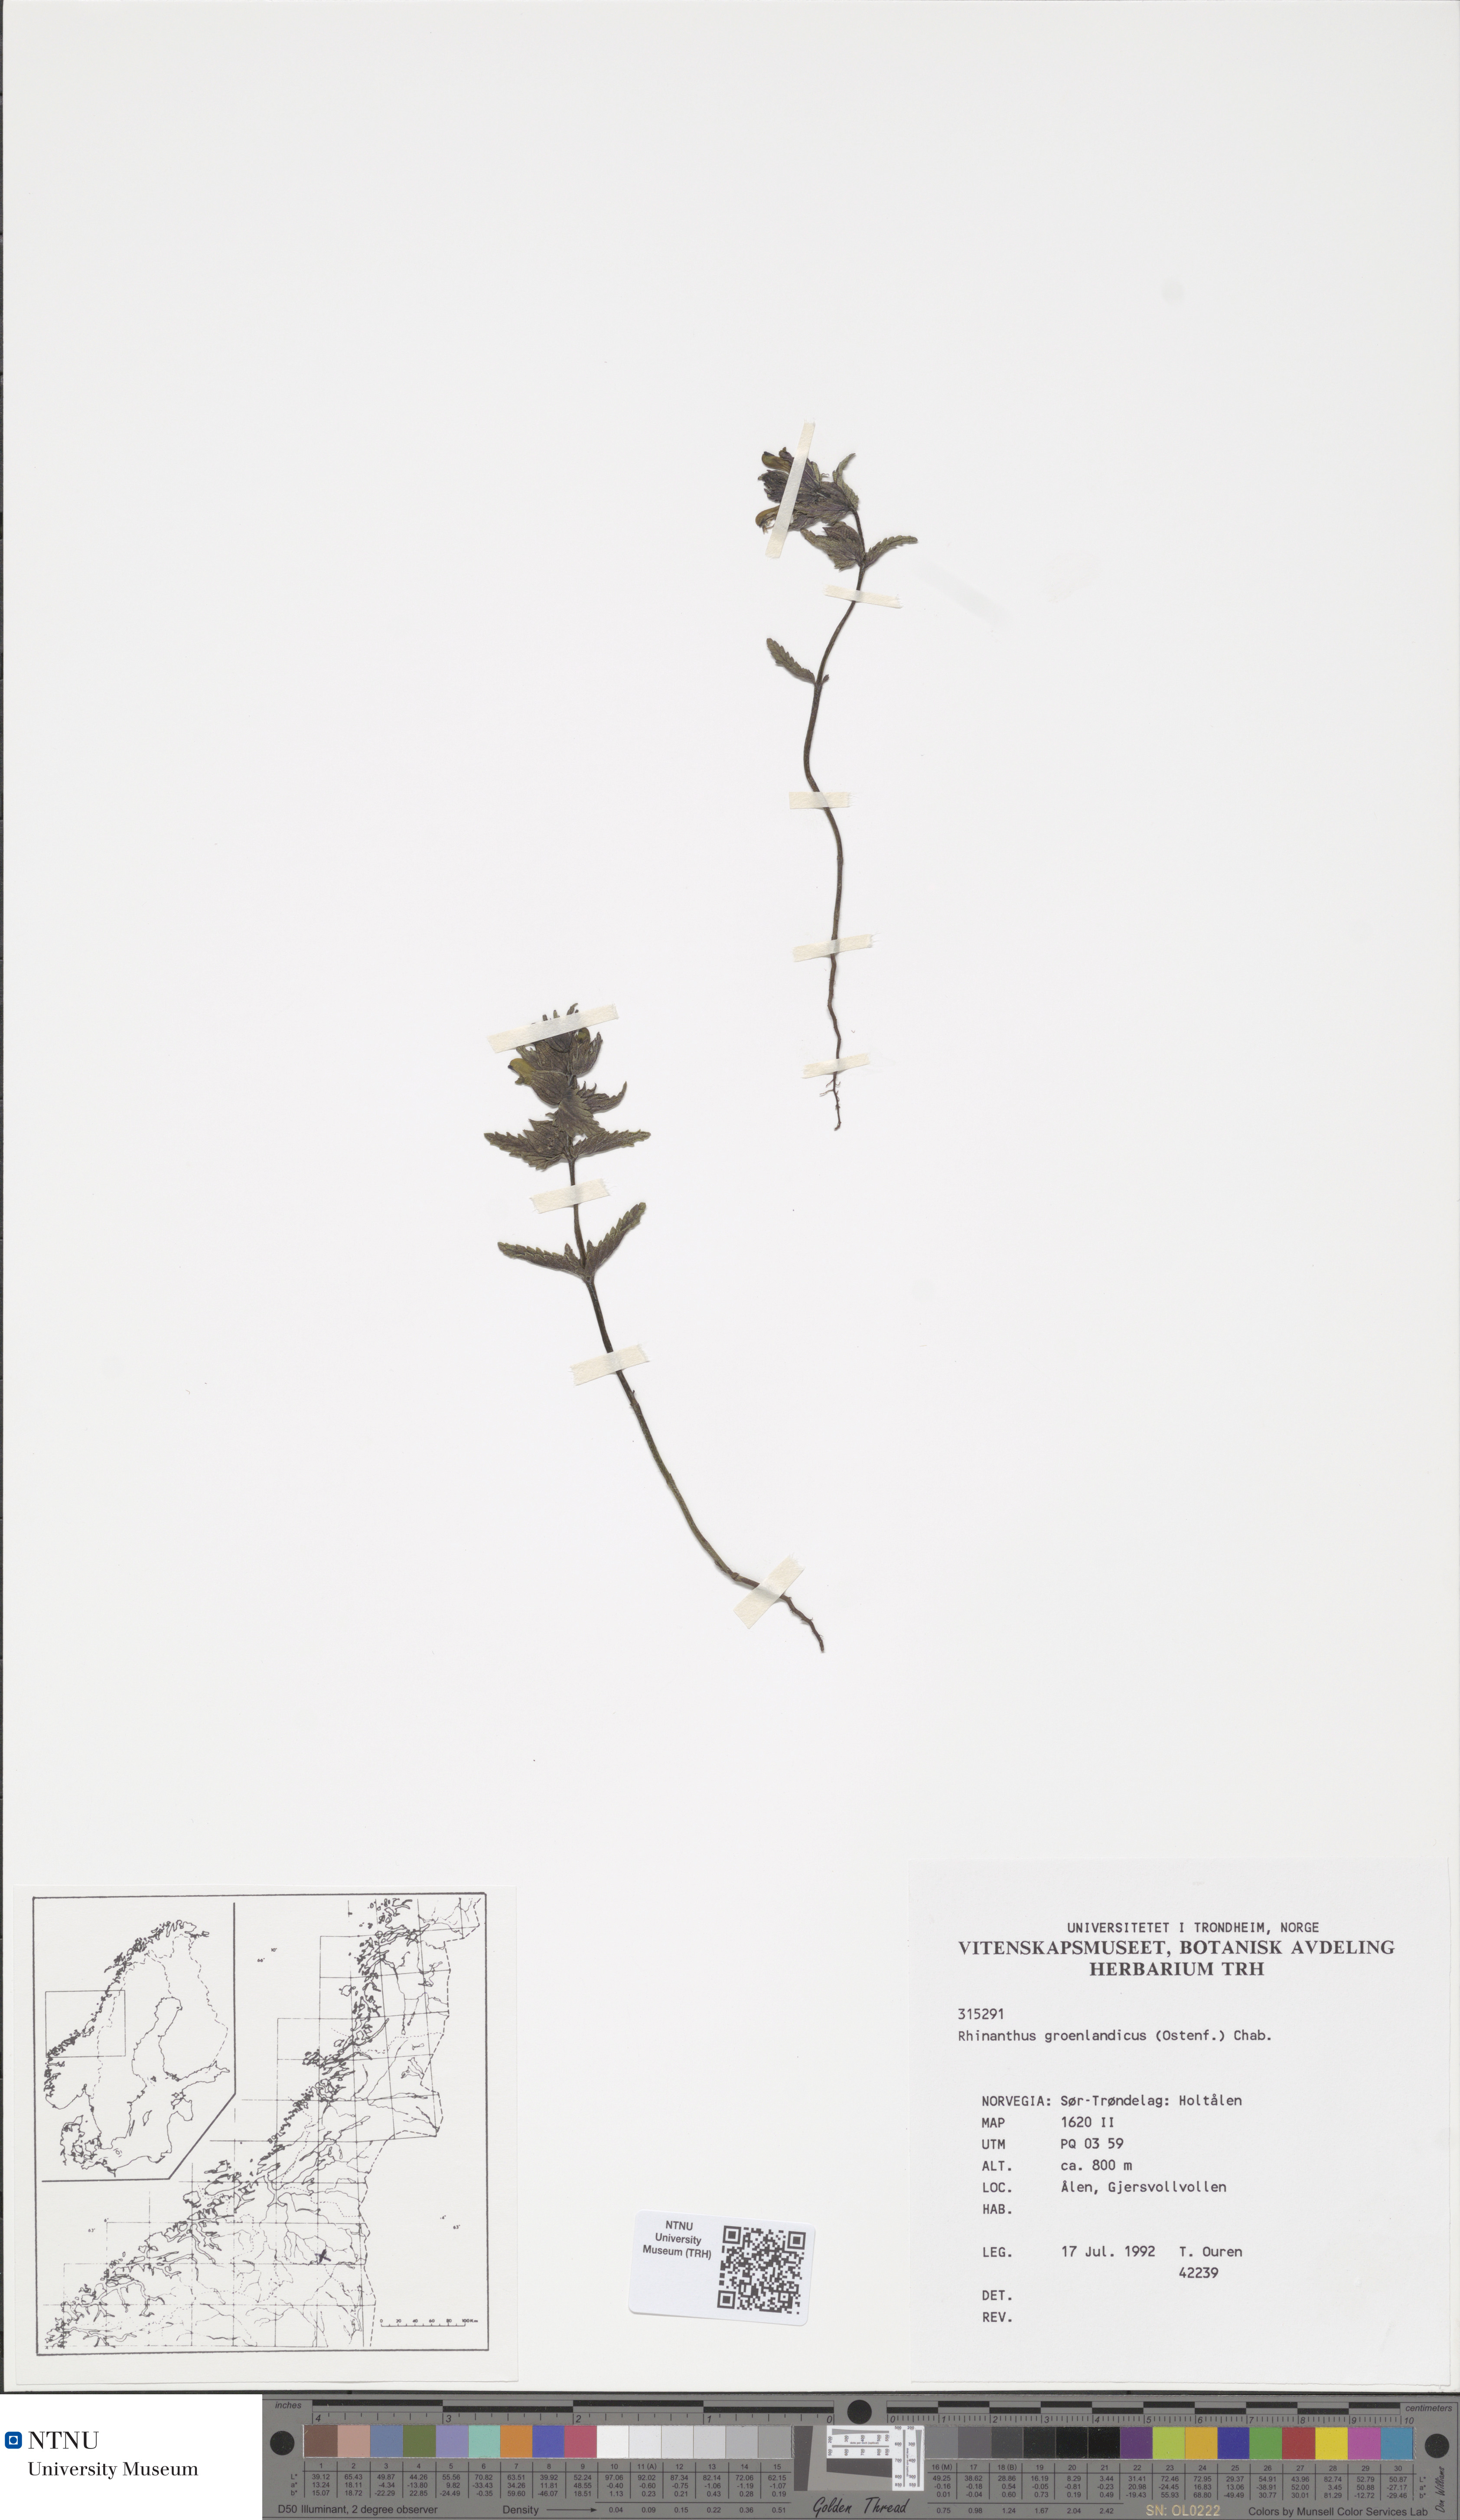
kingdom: Plantae
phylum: Tracheophyta
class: Magnoliopsida
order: Lamiales
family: Orobanchaceae
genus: Rhinanthus
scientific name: Rhinanthus groenlandicus
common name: Little yellow rattle
